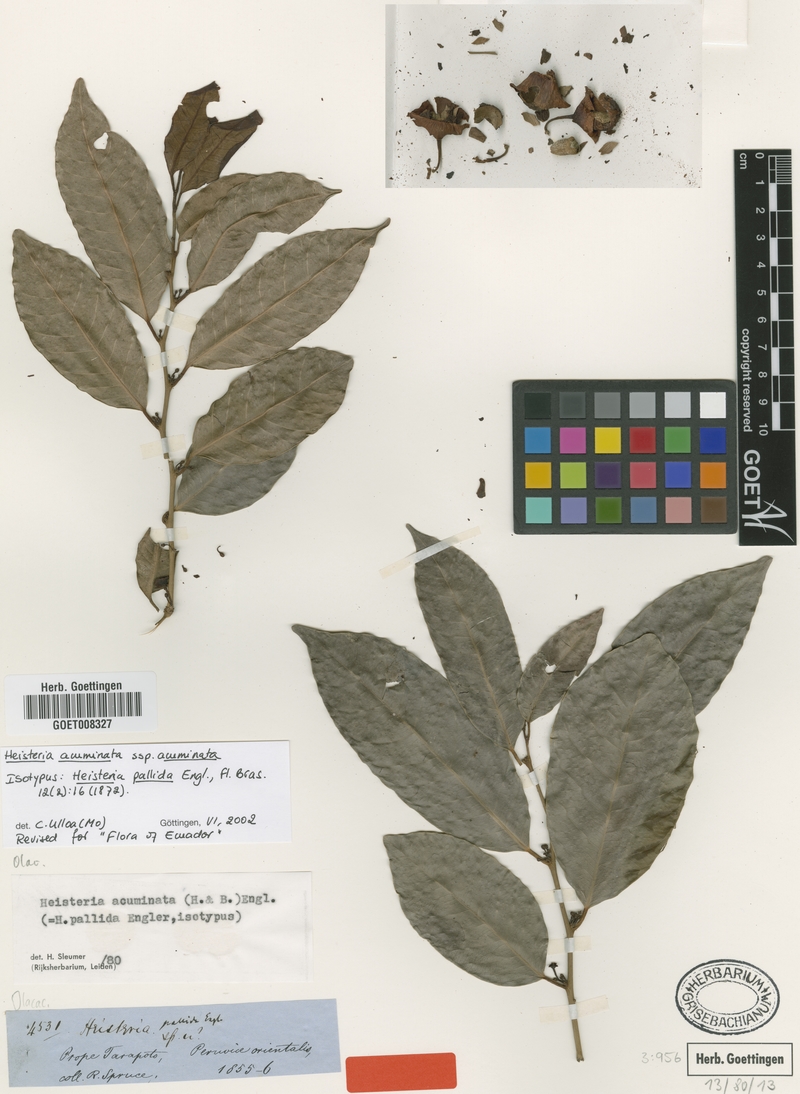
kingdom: Plantae
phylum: Tracheophyta
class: Magnoliopsida
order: Santalales
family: Erythropalaceae
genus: Heisteria
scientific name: Heisteria acuminata
